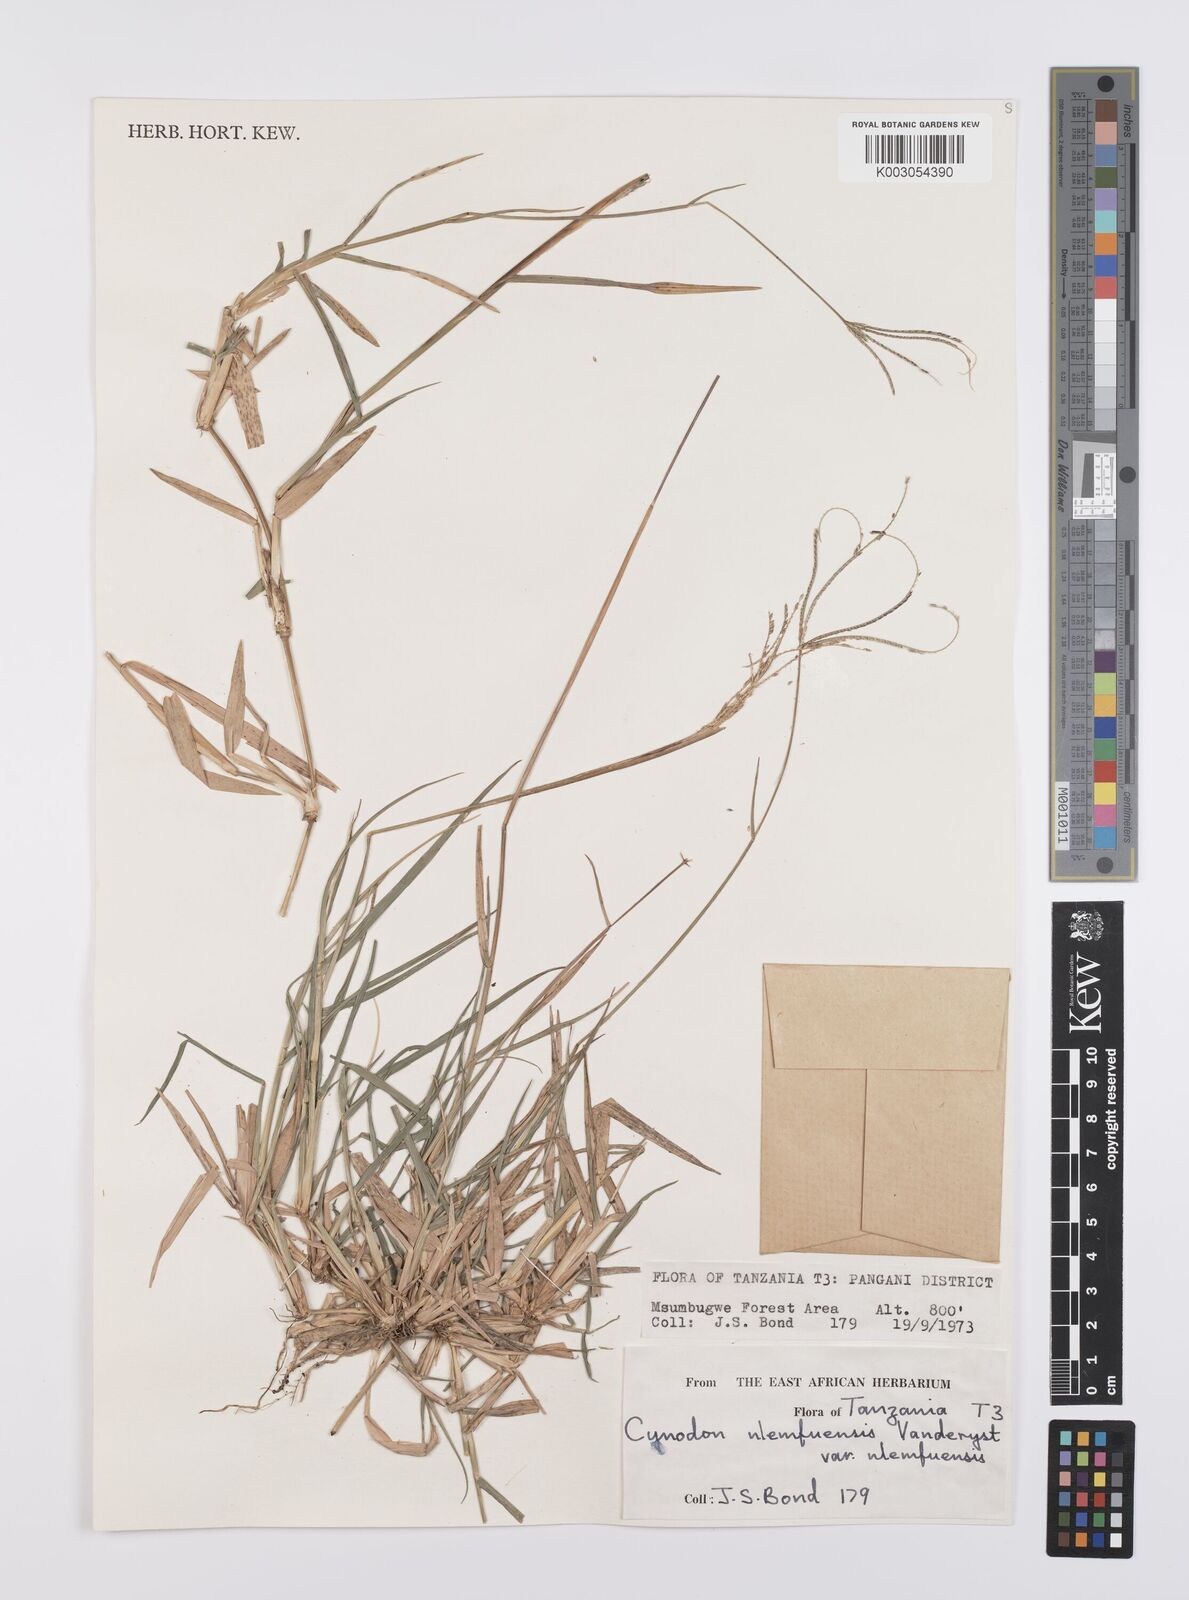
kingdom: Plantae
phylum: Tracheophyta
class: Liliopsida
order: Poales
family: Poaceae
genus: Cynodon
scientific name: Cynodon nlemfuensis
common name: African bermudagrass
